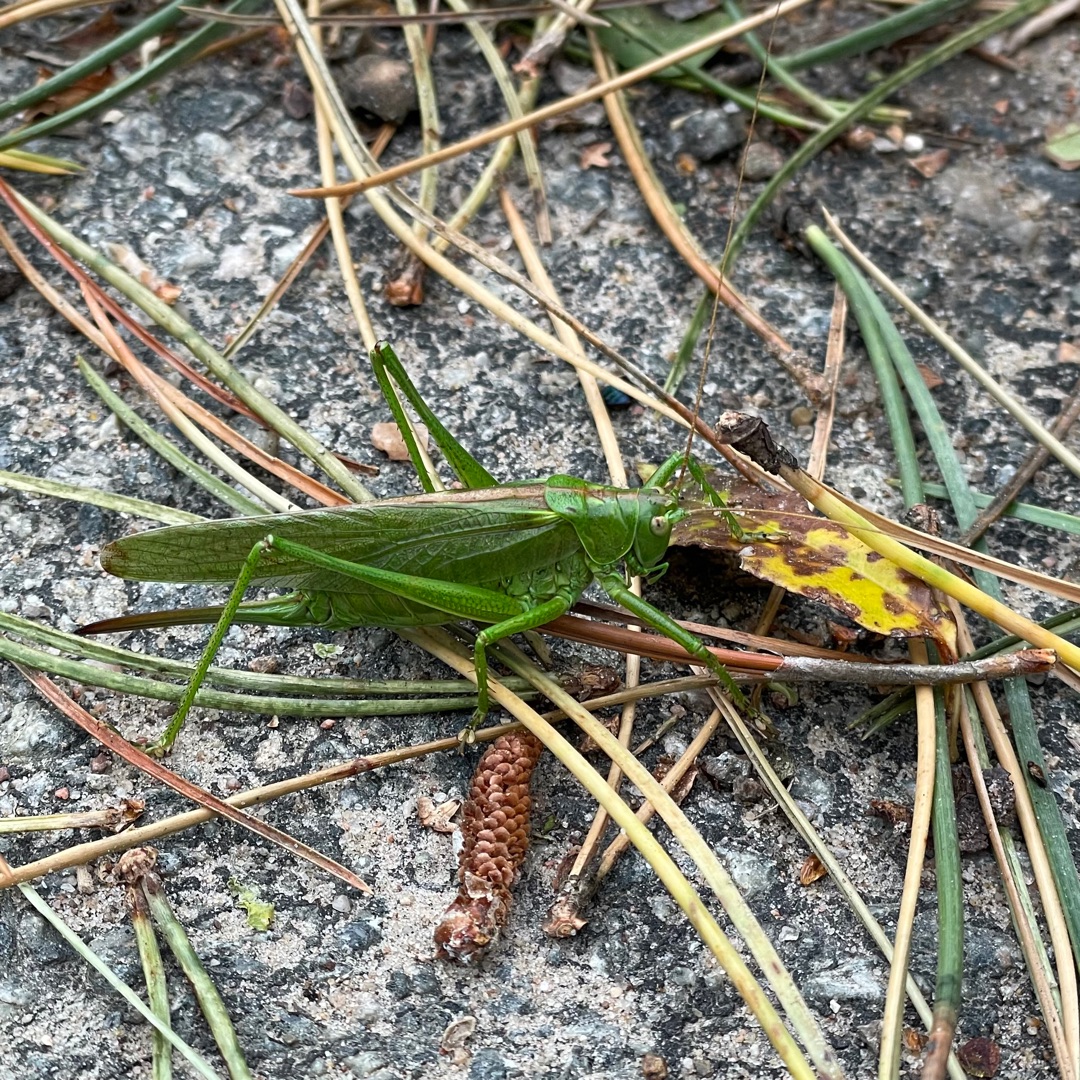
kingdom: Animalia
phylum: Arthropoda
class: Insecta
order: Orthoptera
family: Tettigoniidae
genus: Tettigonia
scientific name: Tettigonia viridissima
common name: Stor grøn løvgræshoppe
